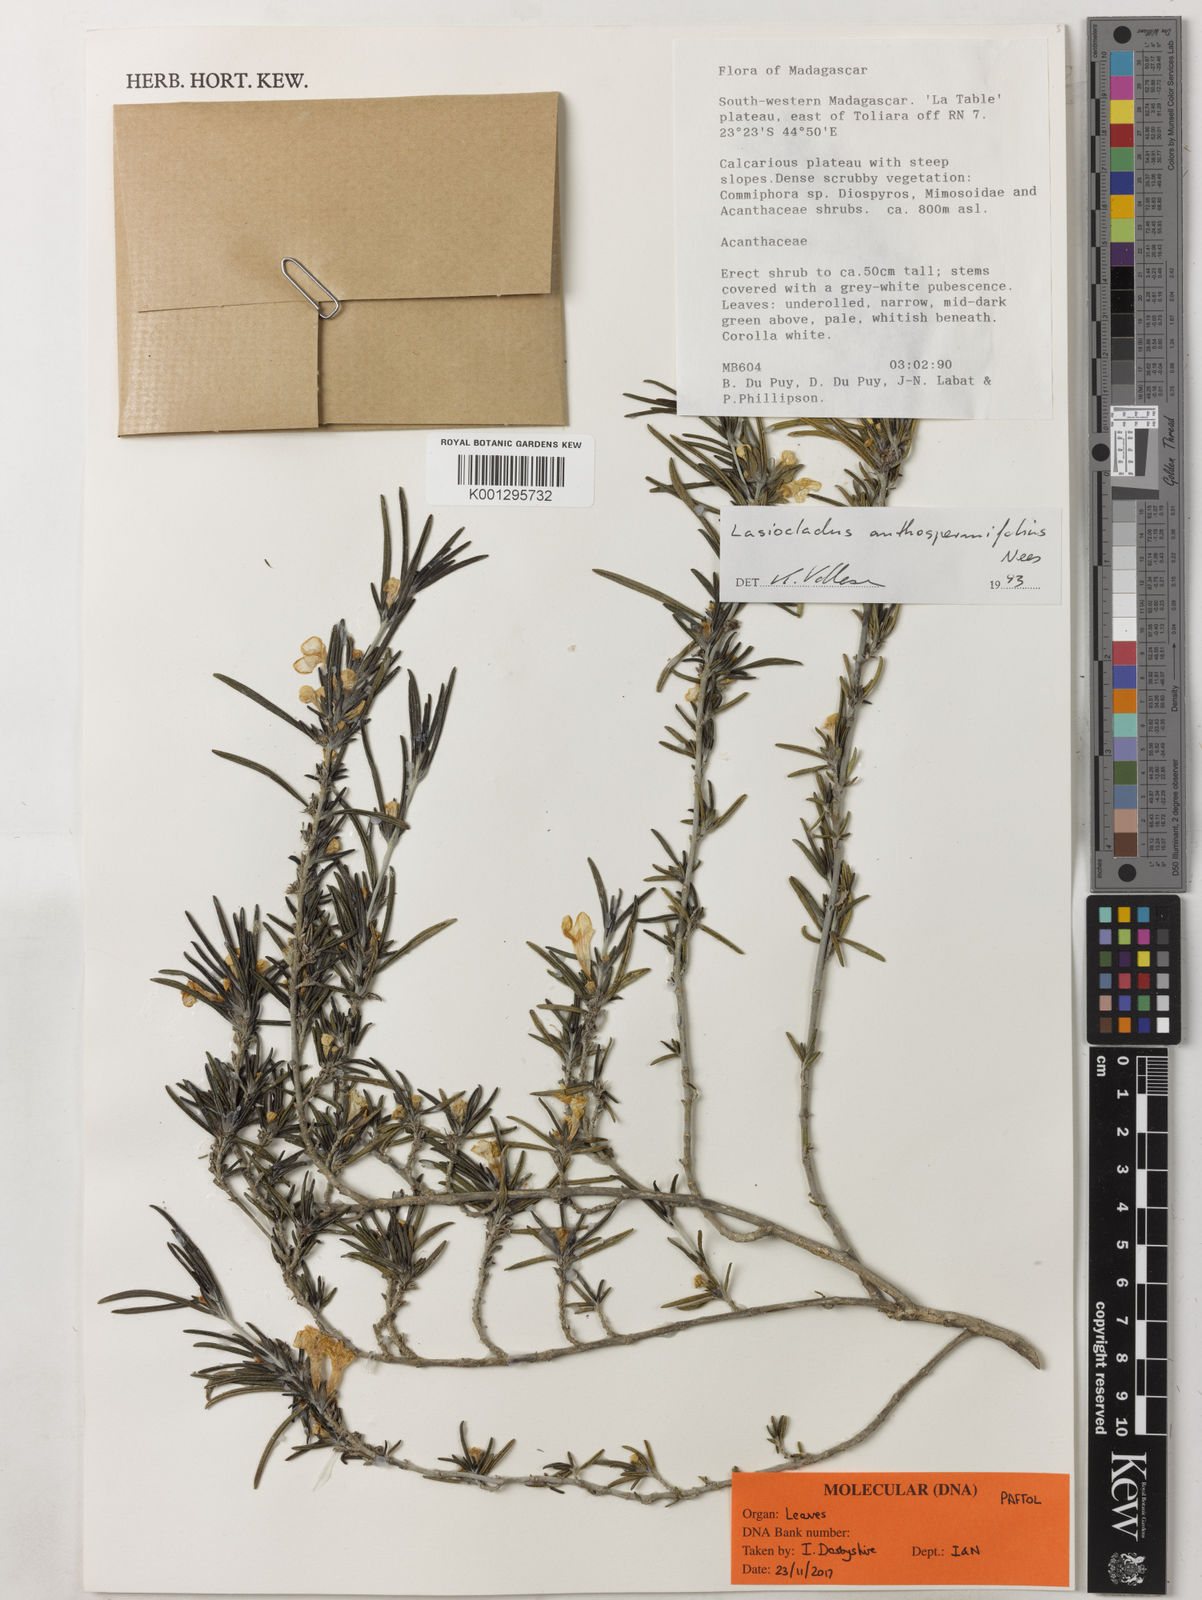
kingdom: Plantae
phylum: Tracheophyta
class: Magnoliopsida
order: Lamiales
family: Acanthaceae
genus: Lasiocladus
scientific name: Lasiocladus anthospermifolius
